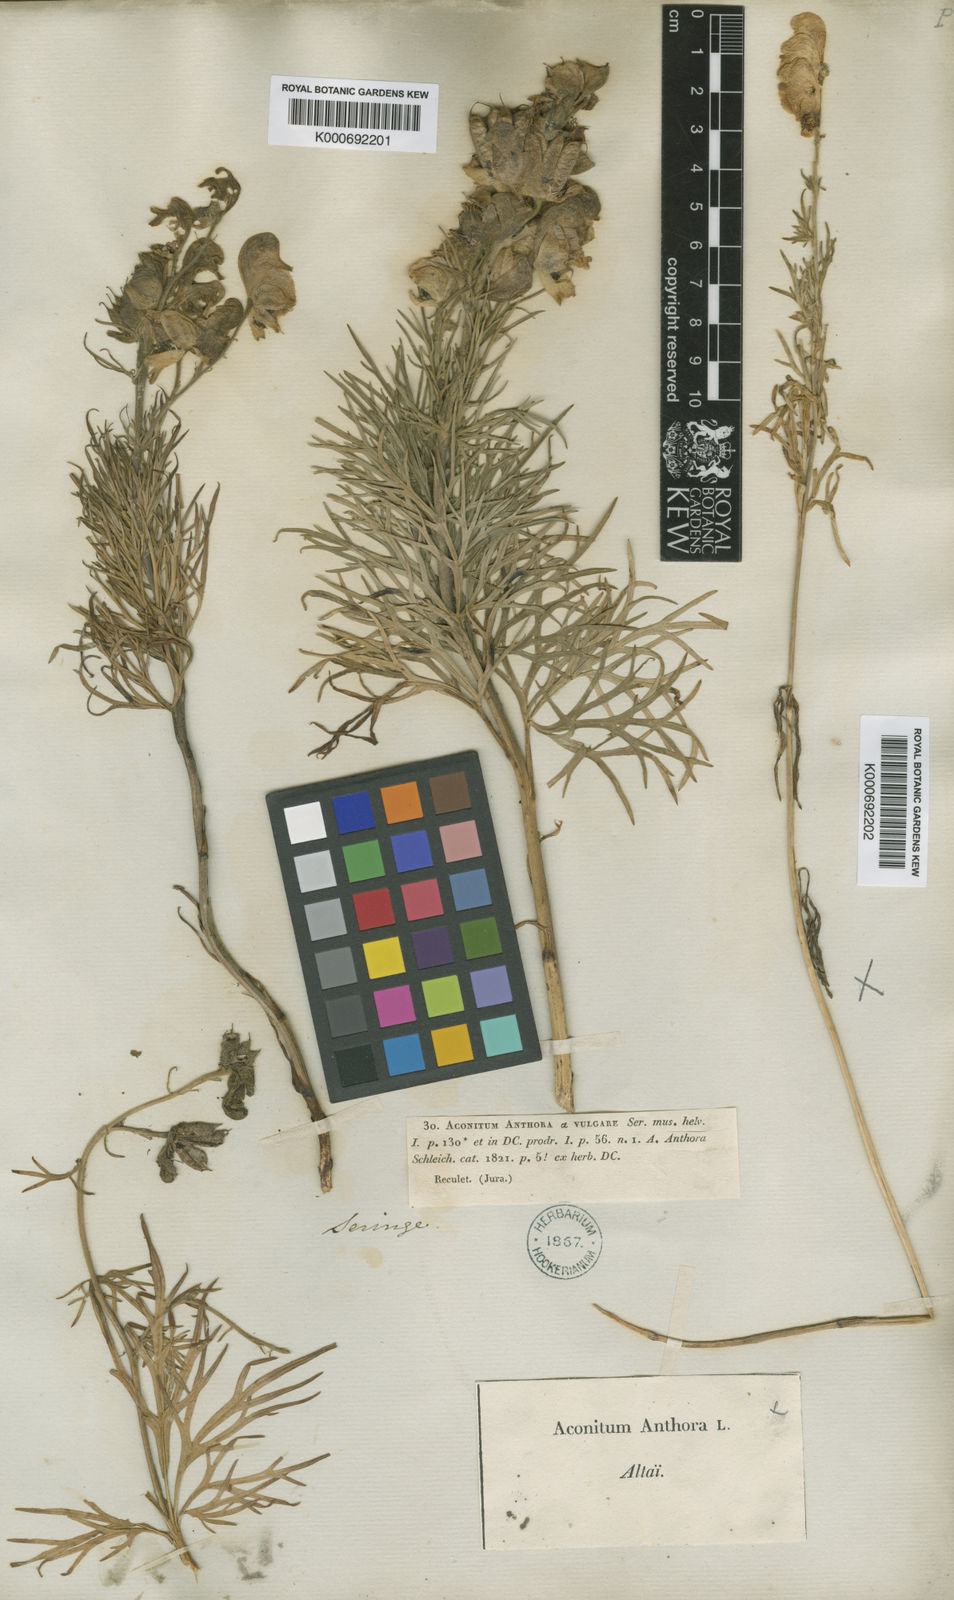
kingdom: Plantae
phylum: Tracheophyta
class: Magnoliopsida
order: Ranunculales
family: Ranunculaceae
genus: Aconitum
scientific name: Aconitum anthora
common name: Yellow monkshood
